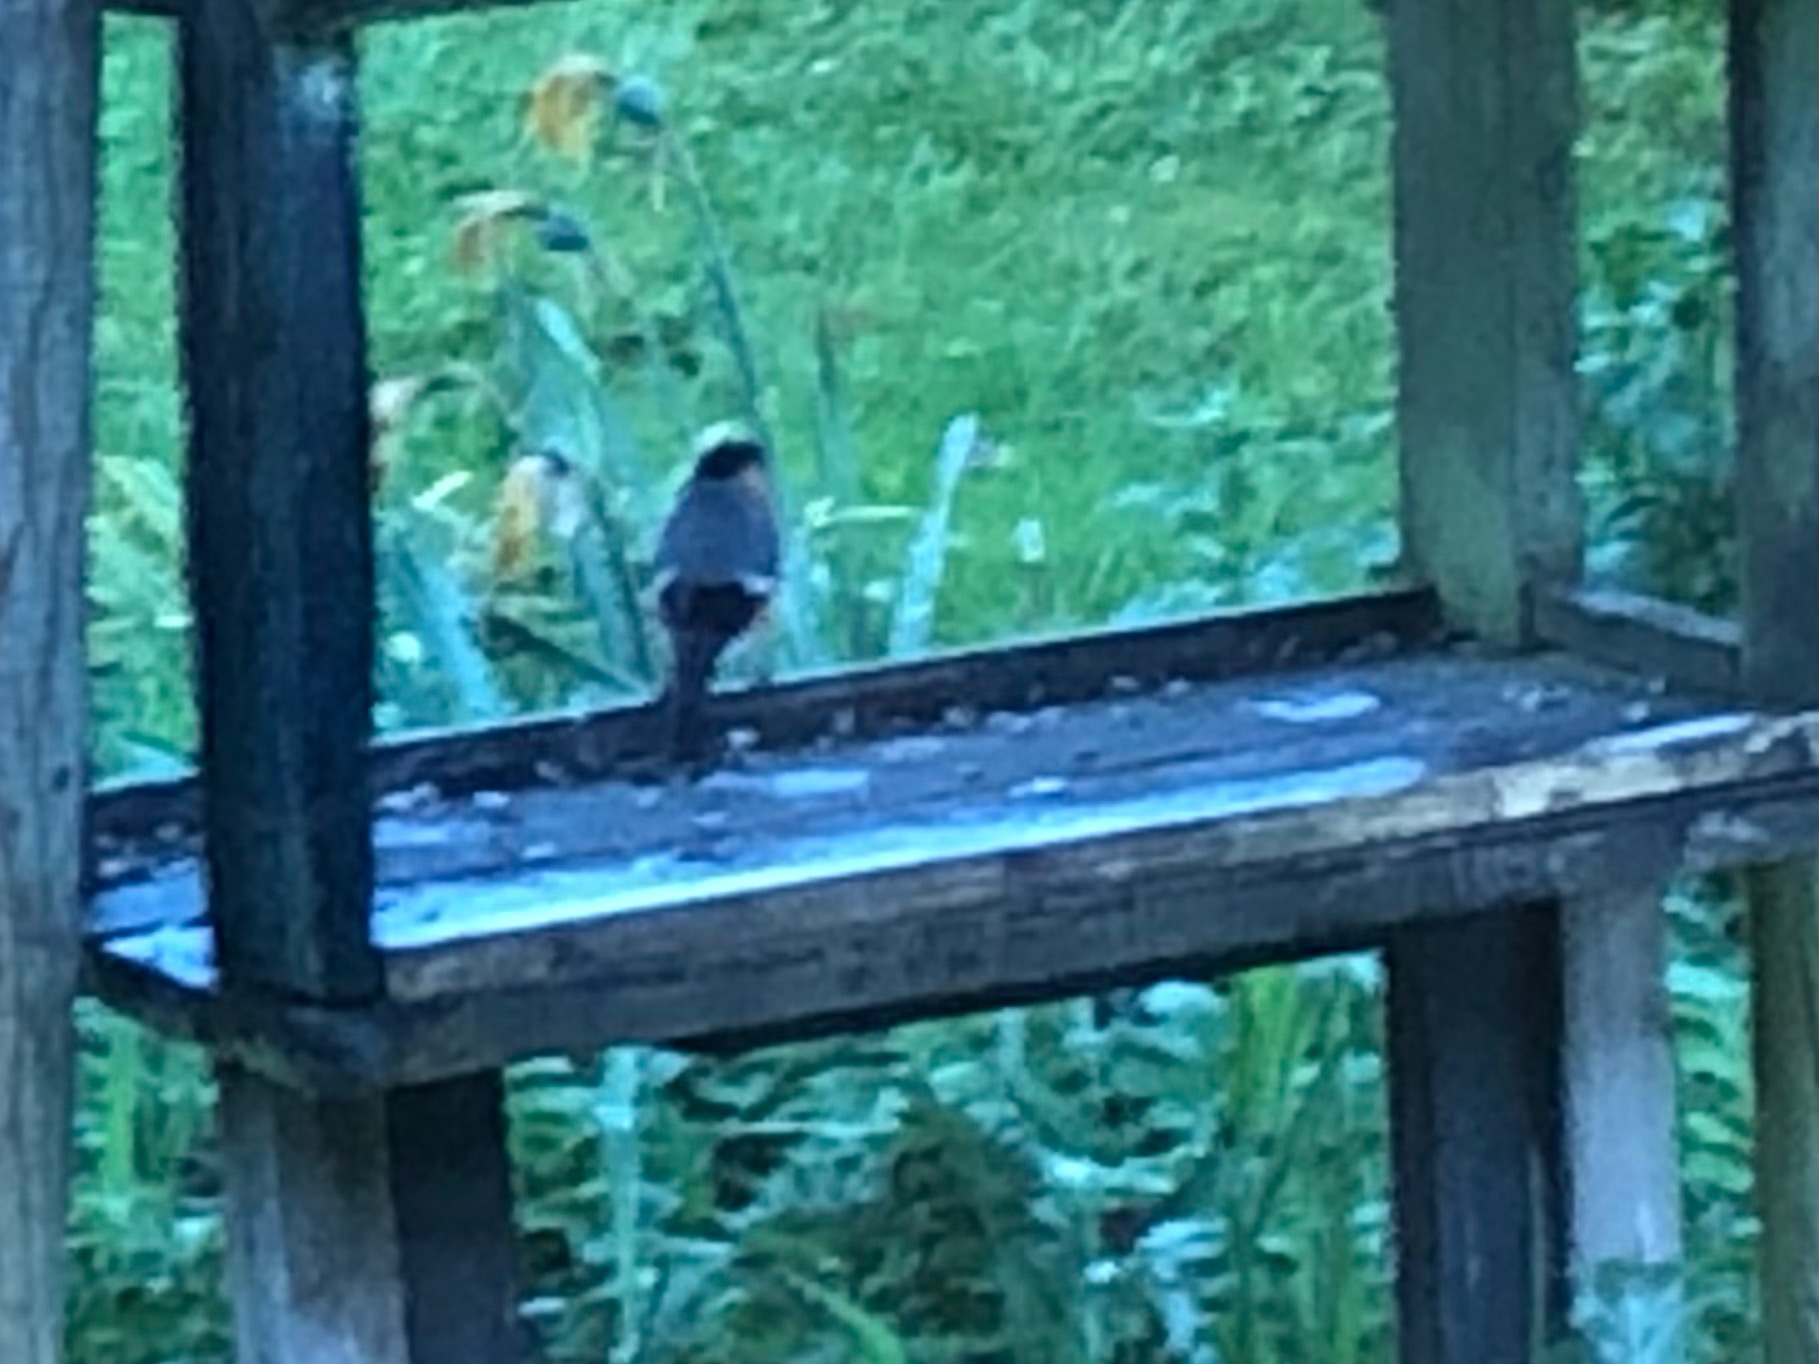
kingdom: Animalia
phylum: Chordata
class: Aves
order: Passeriformes
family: Fringillidae
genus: Pyrrhula
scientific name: Pyrrhula pyrrhula
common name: Dompap
